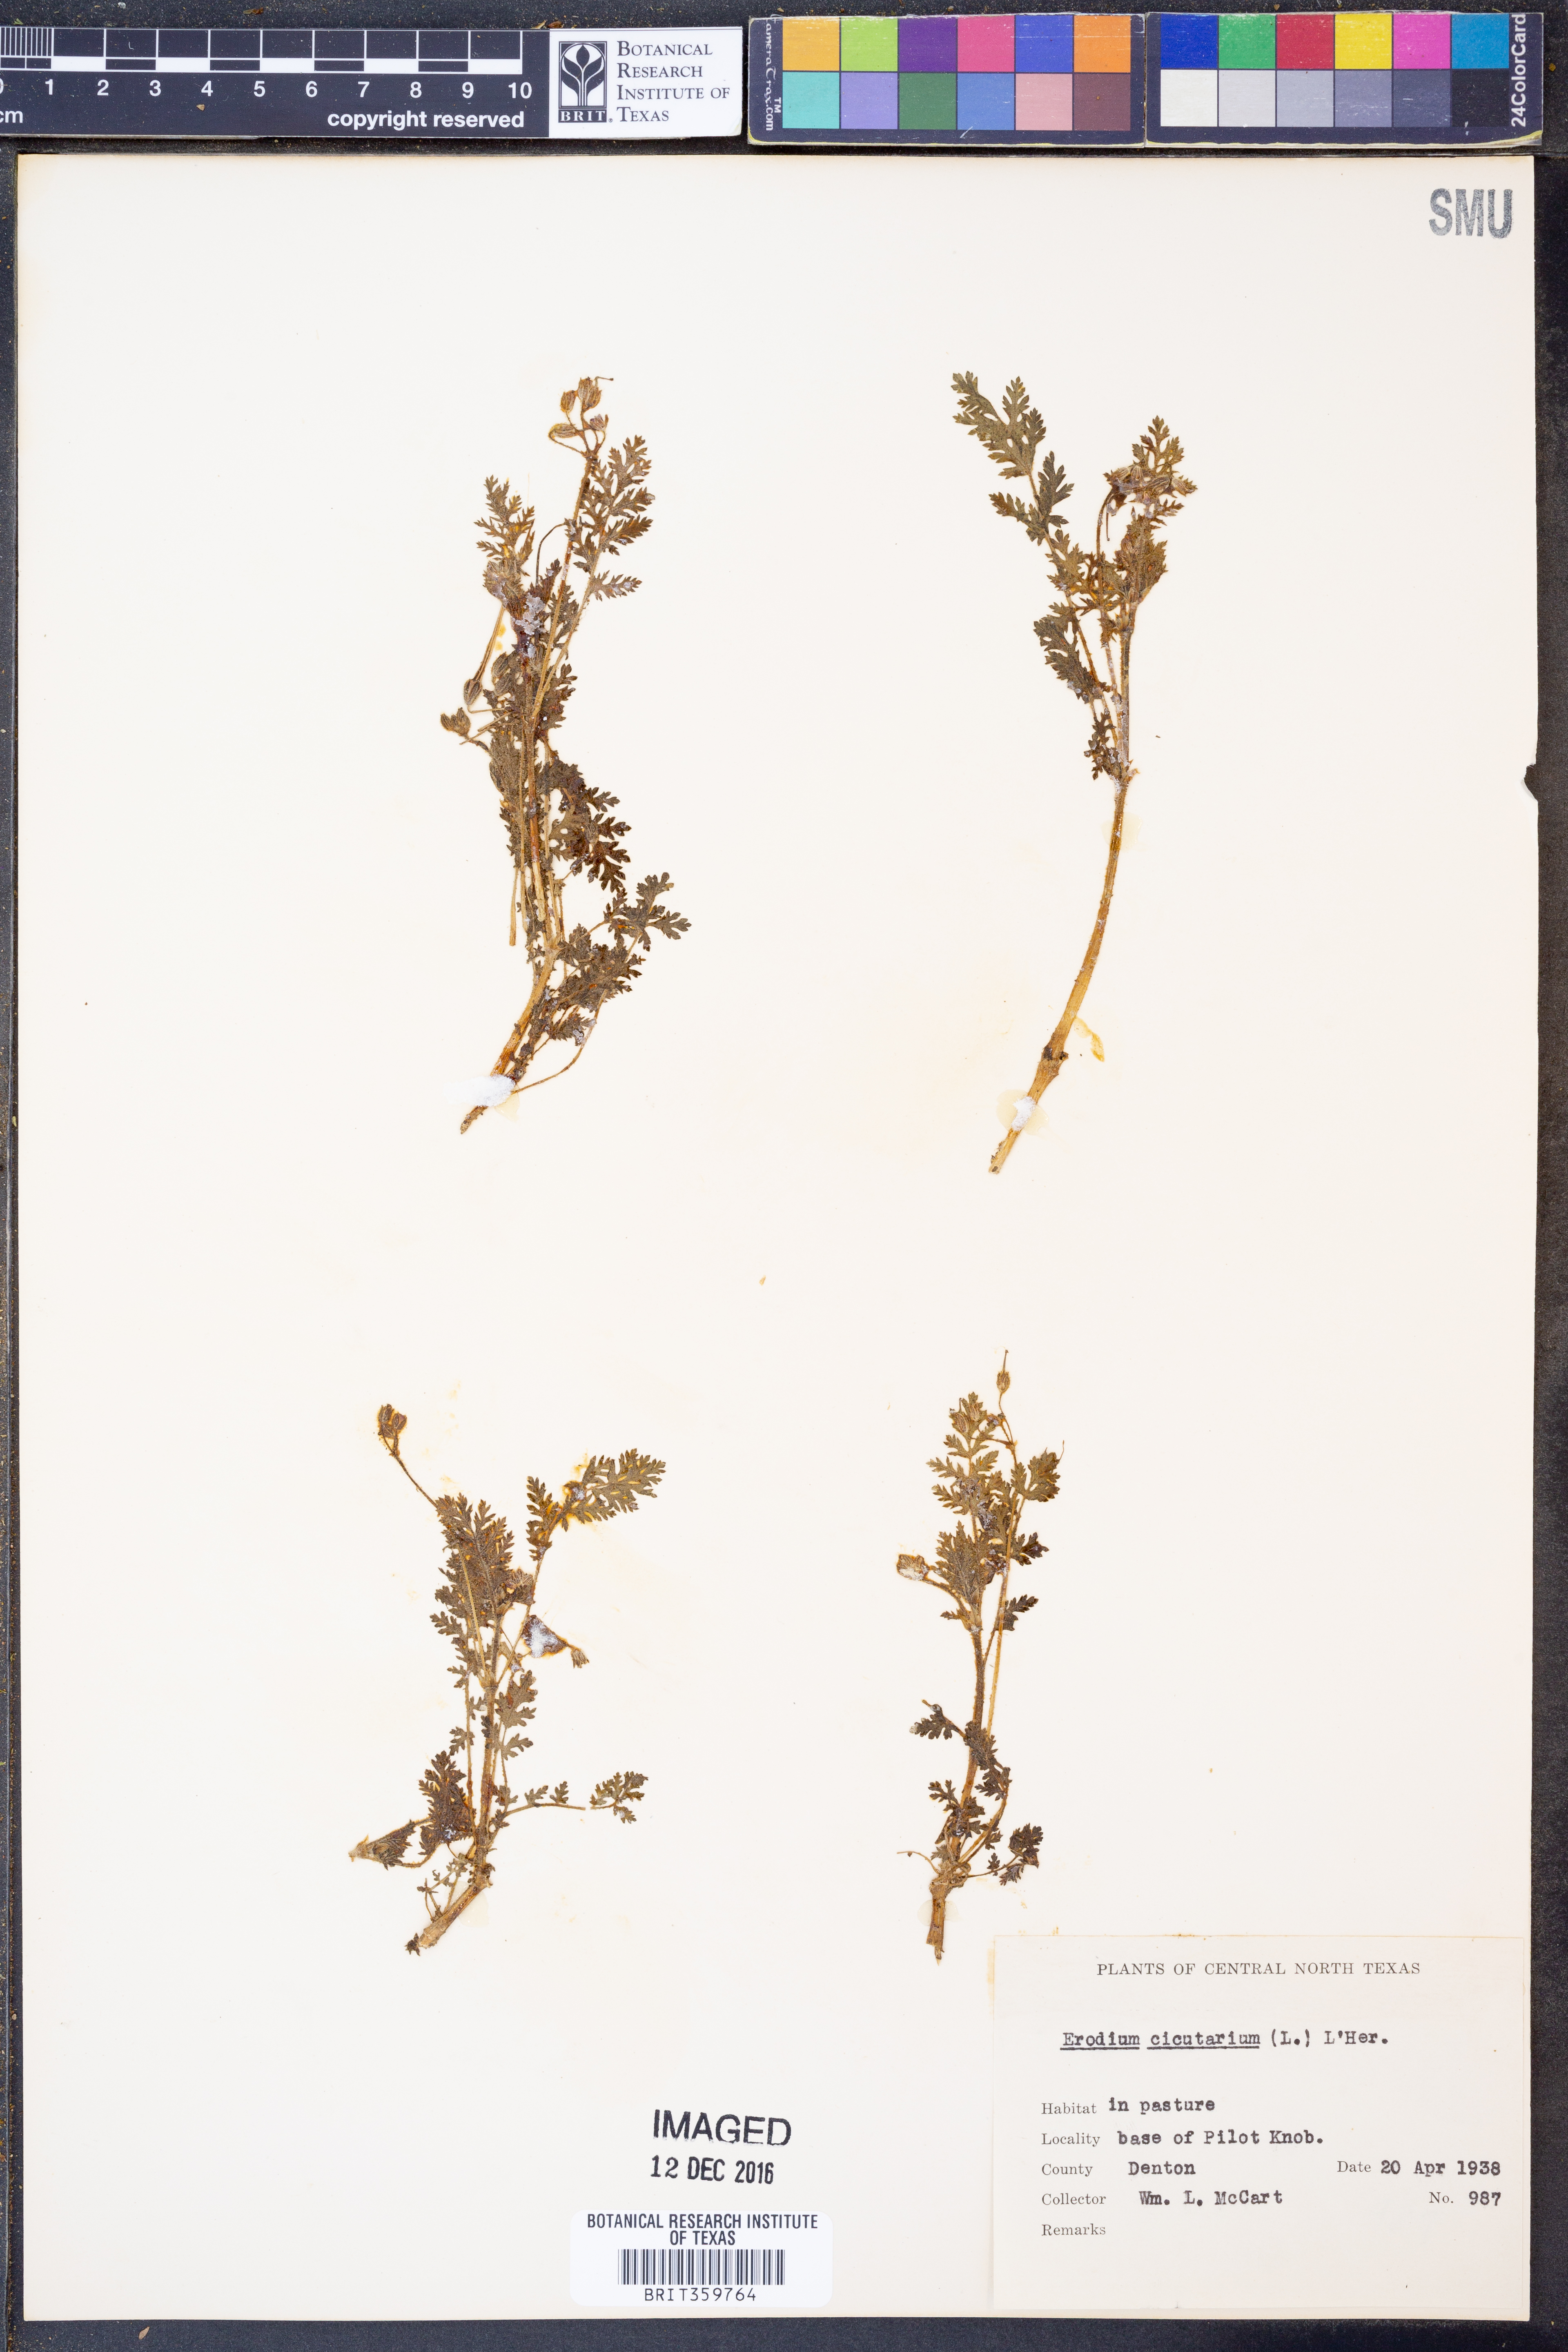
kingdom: Plantae
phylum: Tracheophyta
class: Magnoliopsida
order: Geraniales
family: Geraniaceae
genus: Erodium
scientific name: Erodium cicutarium
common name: Common stork's-bill
